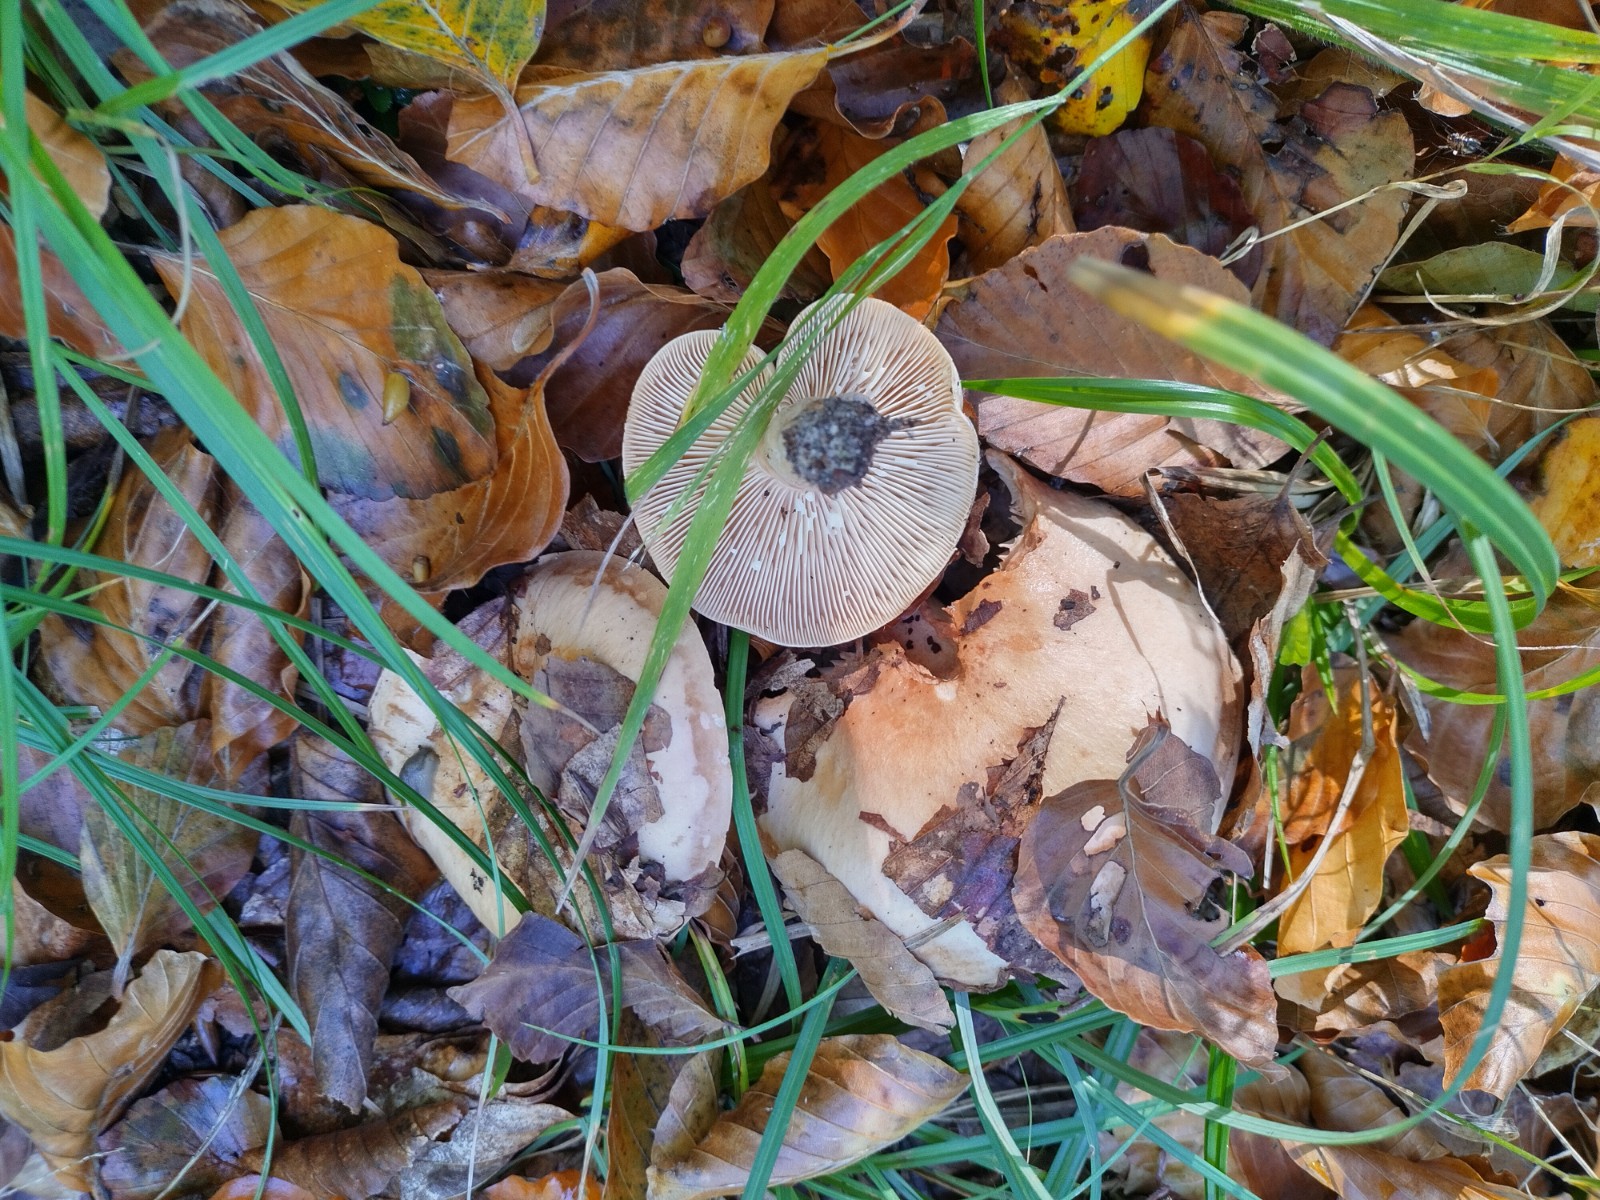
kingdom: Fungi
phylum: Basidiomycota
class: Agaricomycetes
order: Russulales
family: Russulaceae
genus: Lactarius
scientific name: Lactarius pallidus
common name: bleg mælkehat
